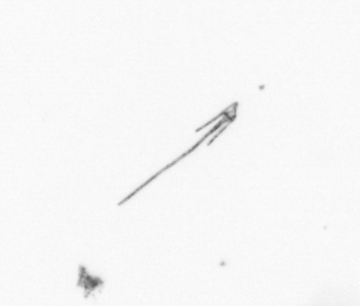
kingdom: Chromista
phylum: Myzozoa
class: Dinophyceae
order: Gonyaulacales
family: Ceratiaceae
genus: Ceratium
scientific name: Ceratium
